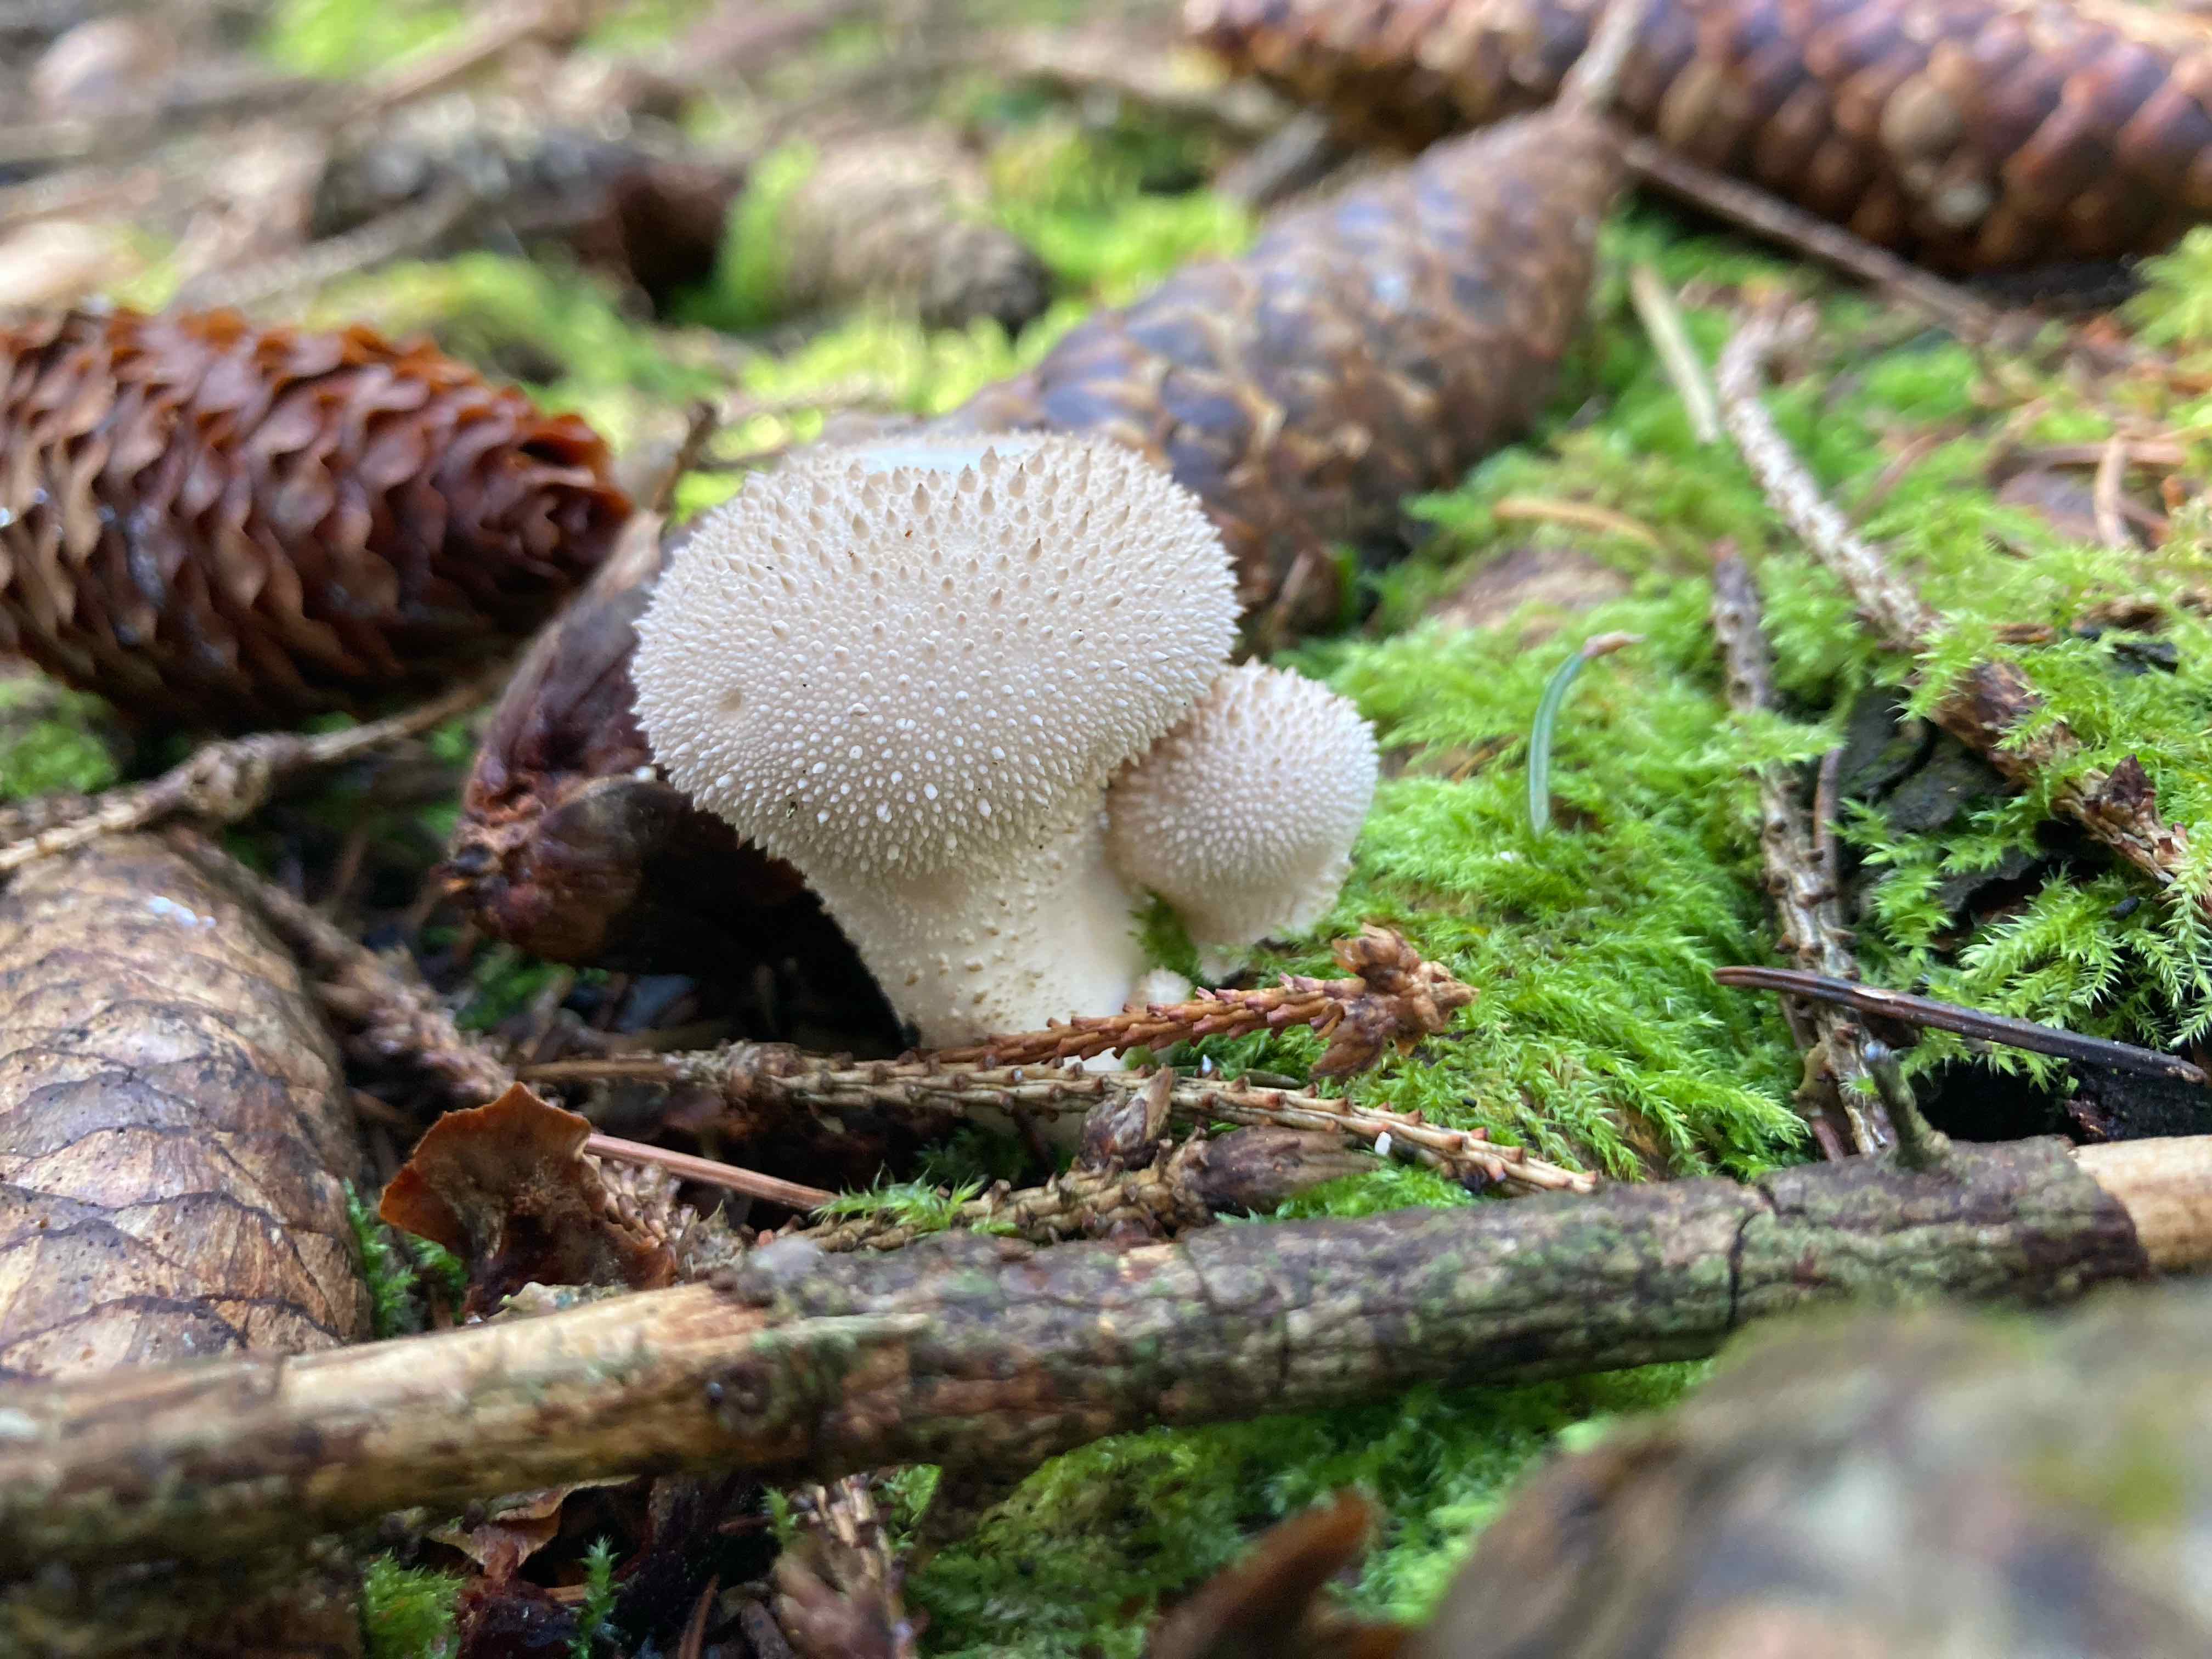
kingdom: Fungi
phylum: Basidiomycota
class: Agaricomycetes
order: Agaricales
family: Lycoperdaceae
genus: Lycoperdon
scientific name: Lycoperdon perlatum
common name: krystal-støvbold
